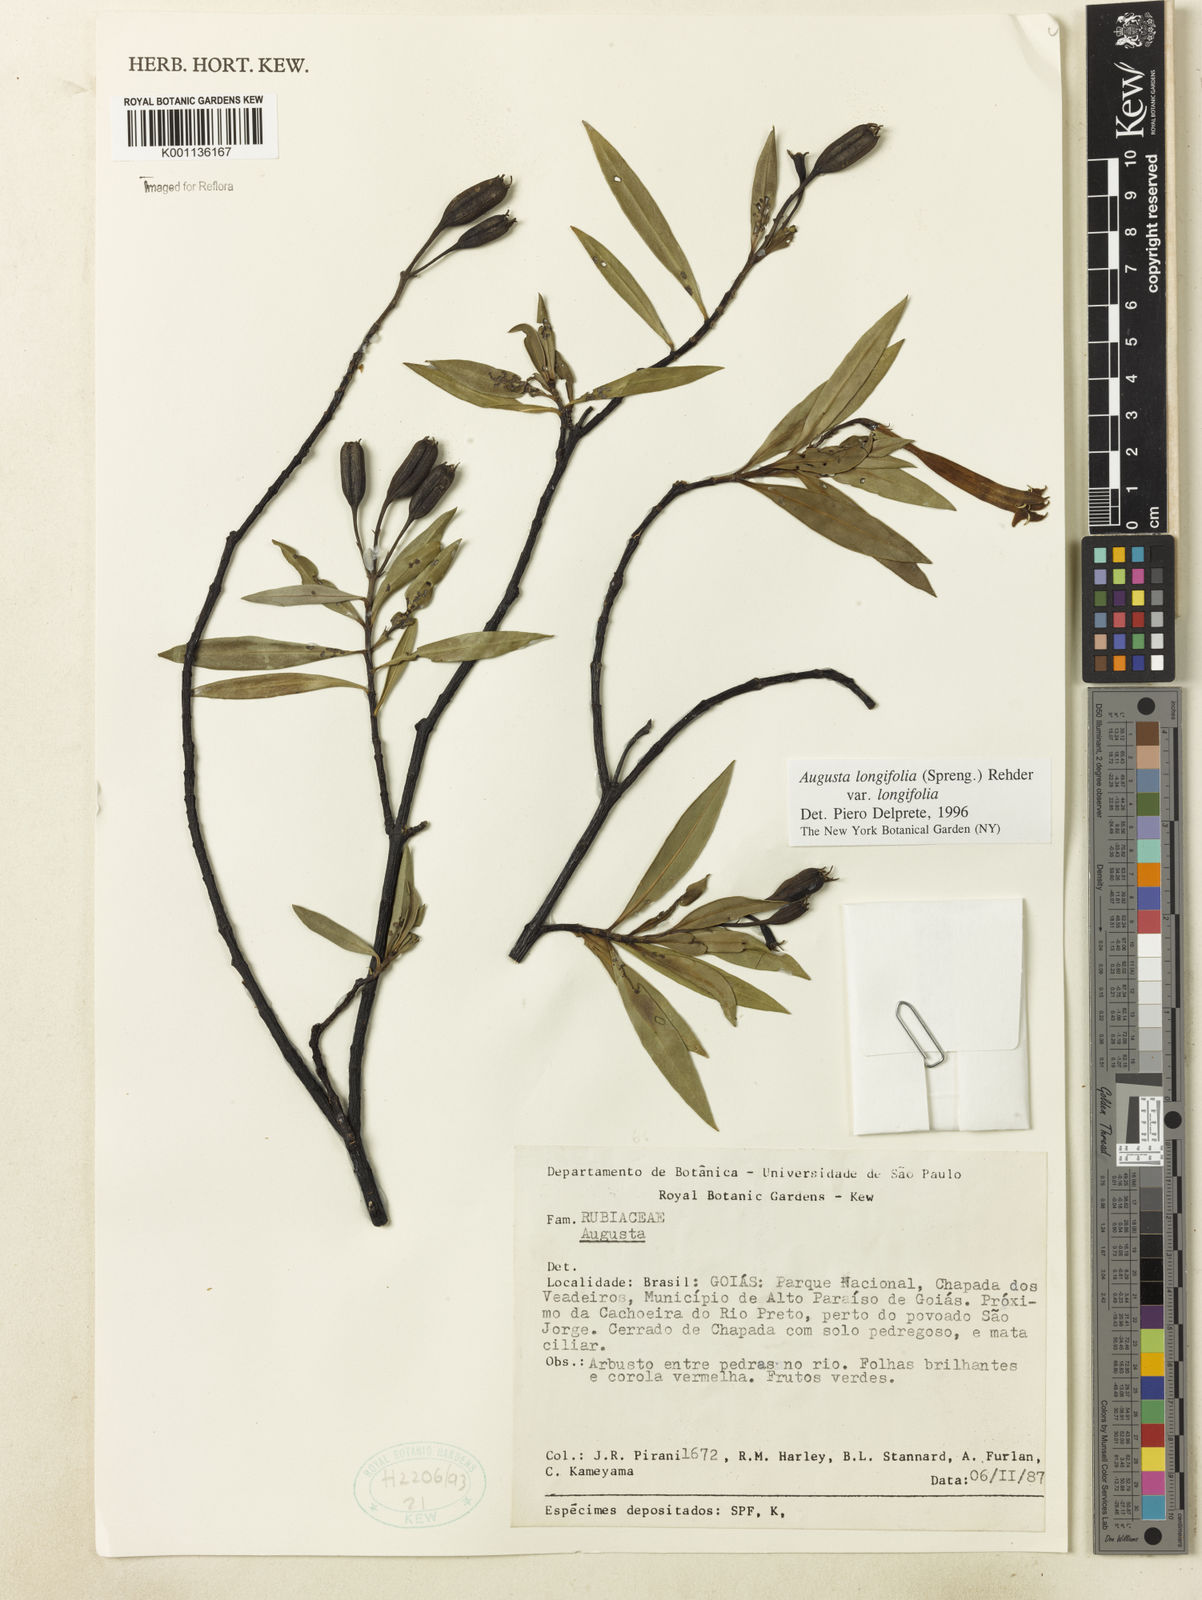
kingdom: Plantae
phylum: Tracheophyta
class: Magnoliopsida
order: Gentianales
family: Rubiaceae
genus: Augusta
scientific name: Augusta longifolia
